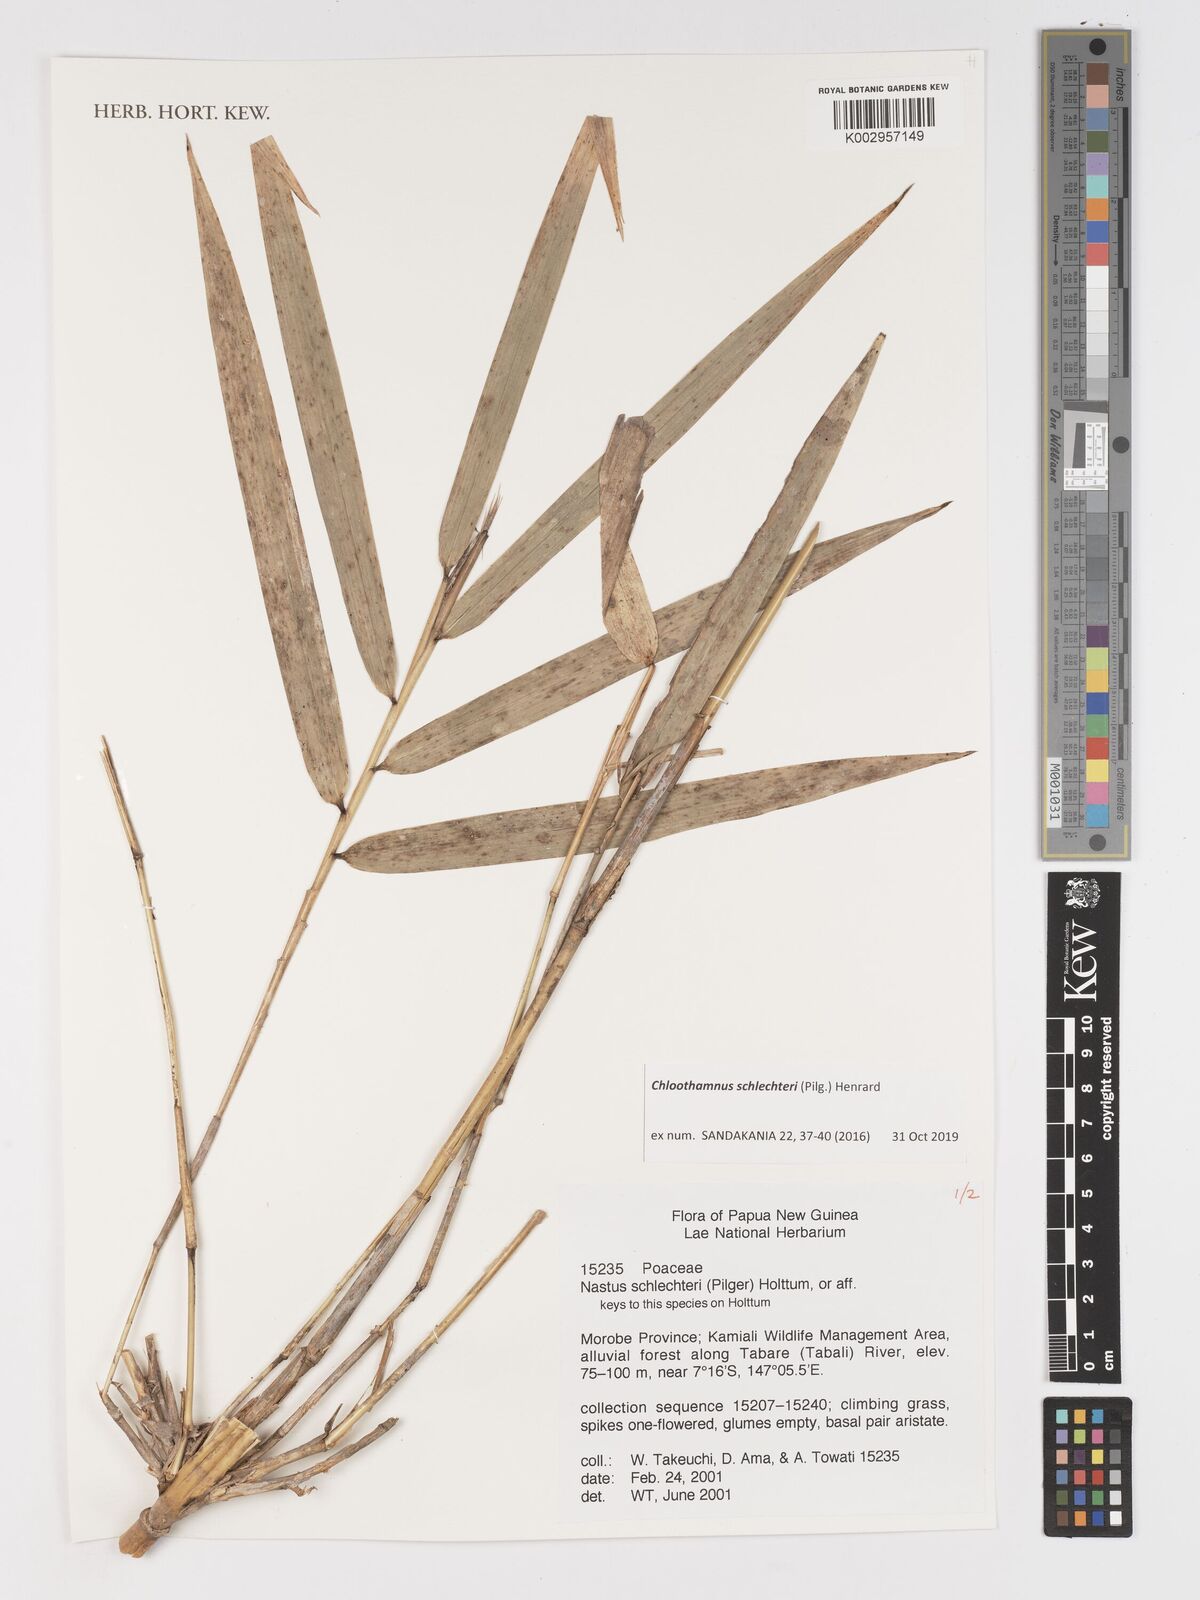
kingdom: Plantae
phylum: Tracheophyta
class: Liliopsida
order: Poales
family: Poaceae
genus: Chloothamnus
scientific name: Chloothamnus schlechteri
